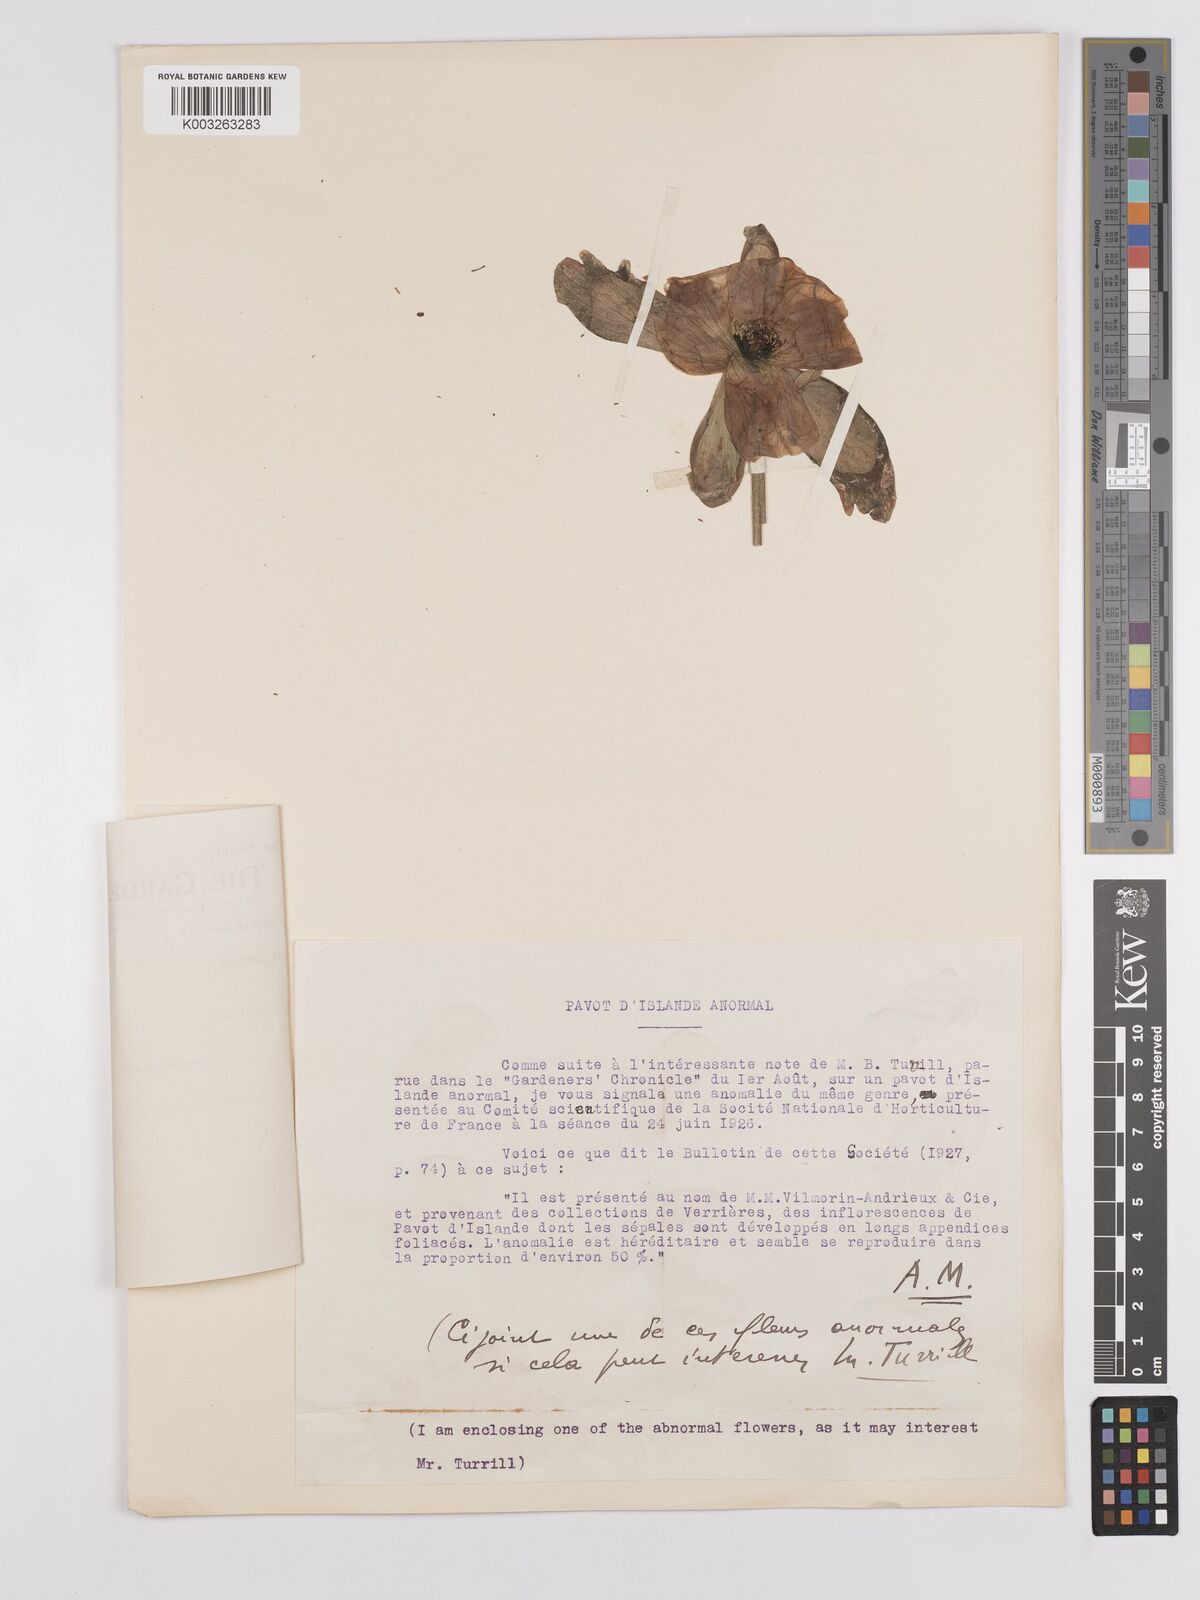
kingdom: Plantae
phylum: Tracheophyta
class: Magnoliopsida
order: Ranunculales
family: Papaveraceae
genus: Papaver
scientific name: Papaver
